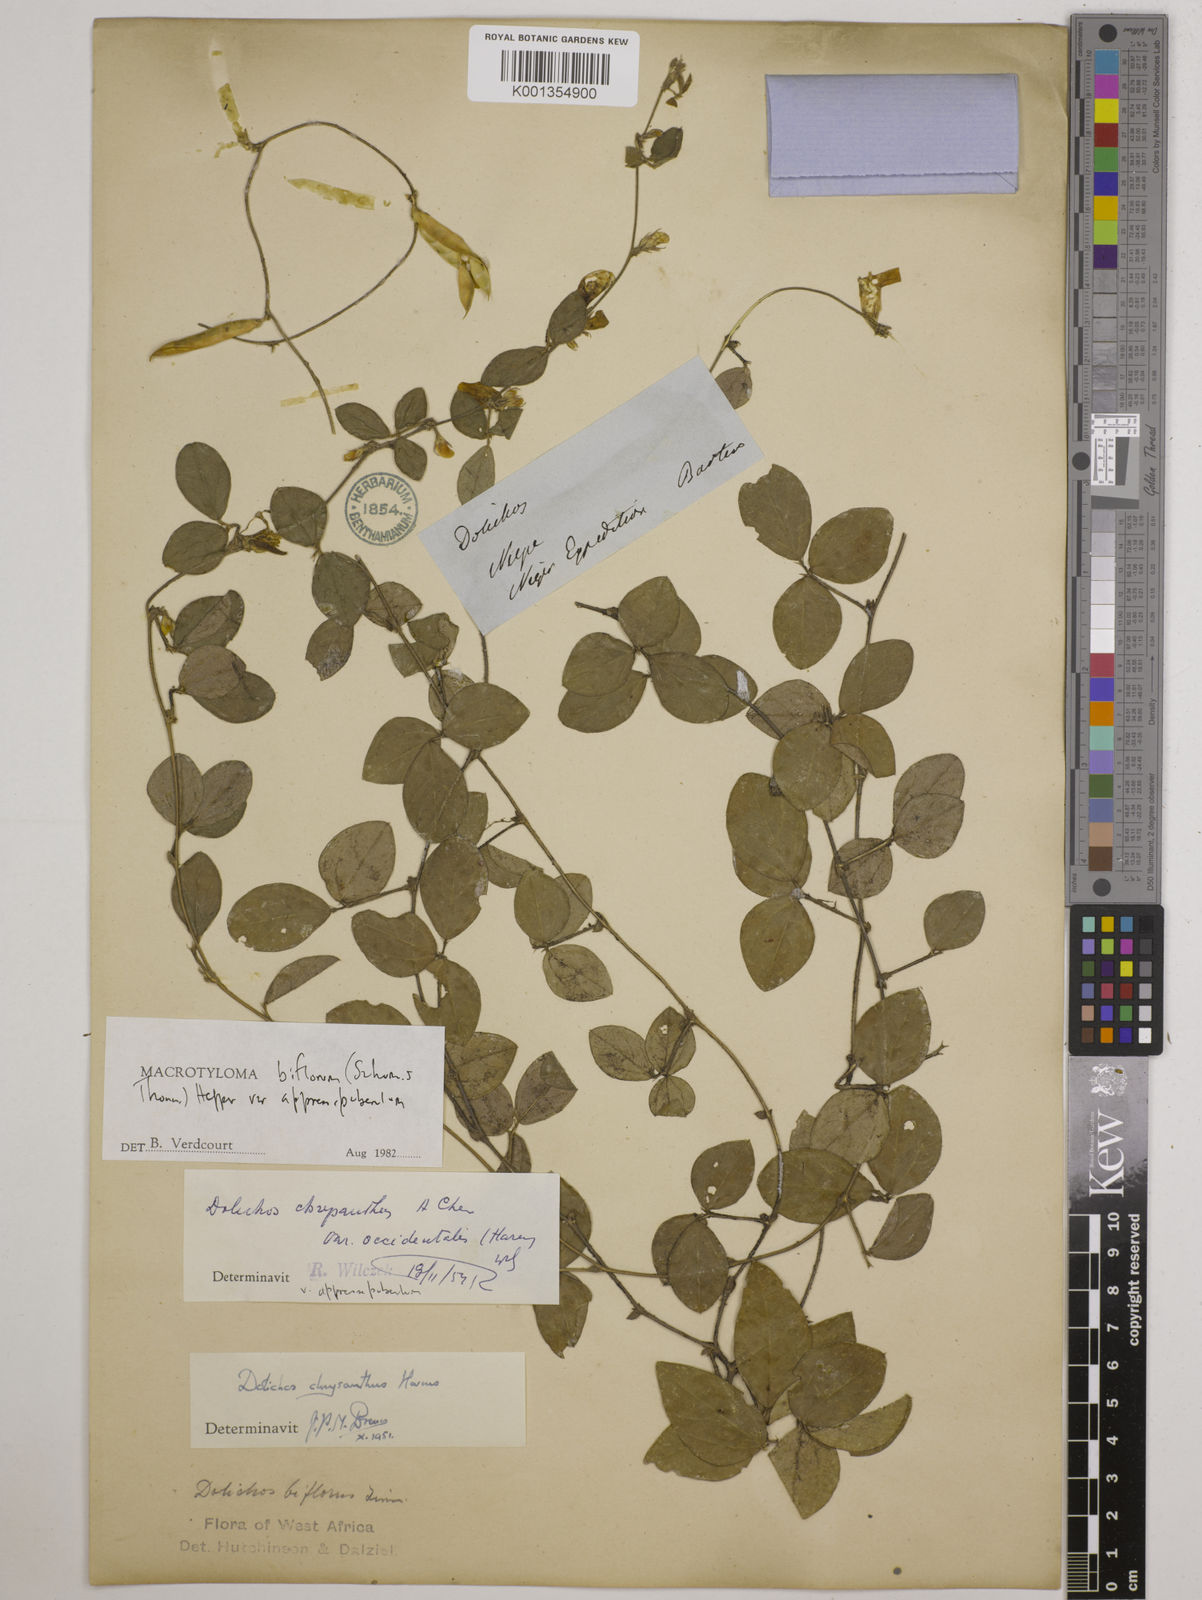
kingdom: Plantae
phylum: Tracheophyta
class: Magnoliopsida
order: Fabales
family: Fabaceae
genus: Macrotyloma
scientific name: Macrotyloma biflorum
